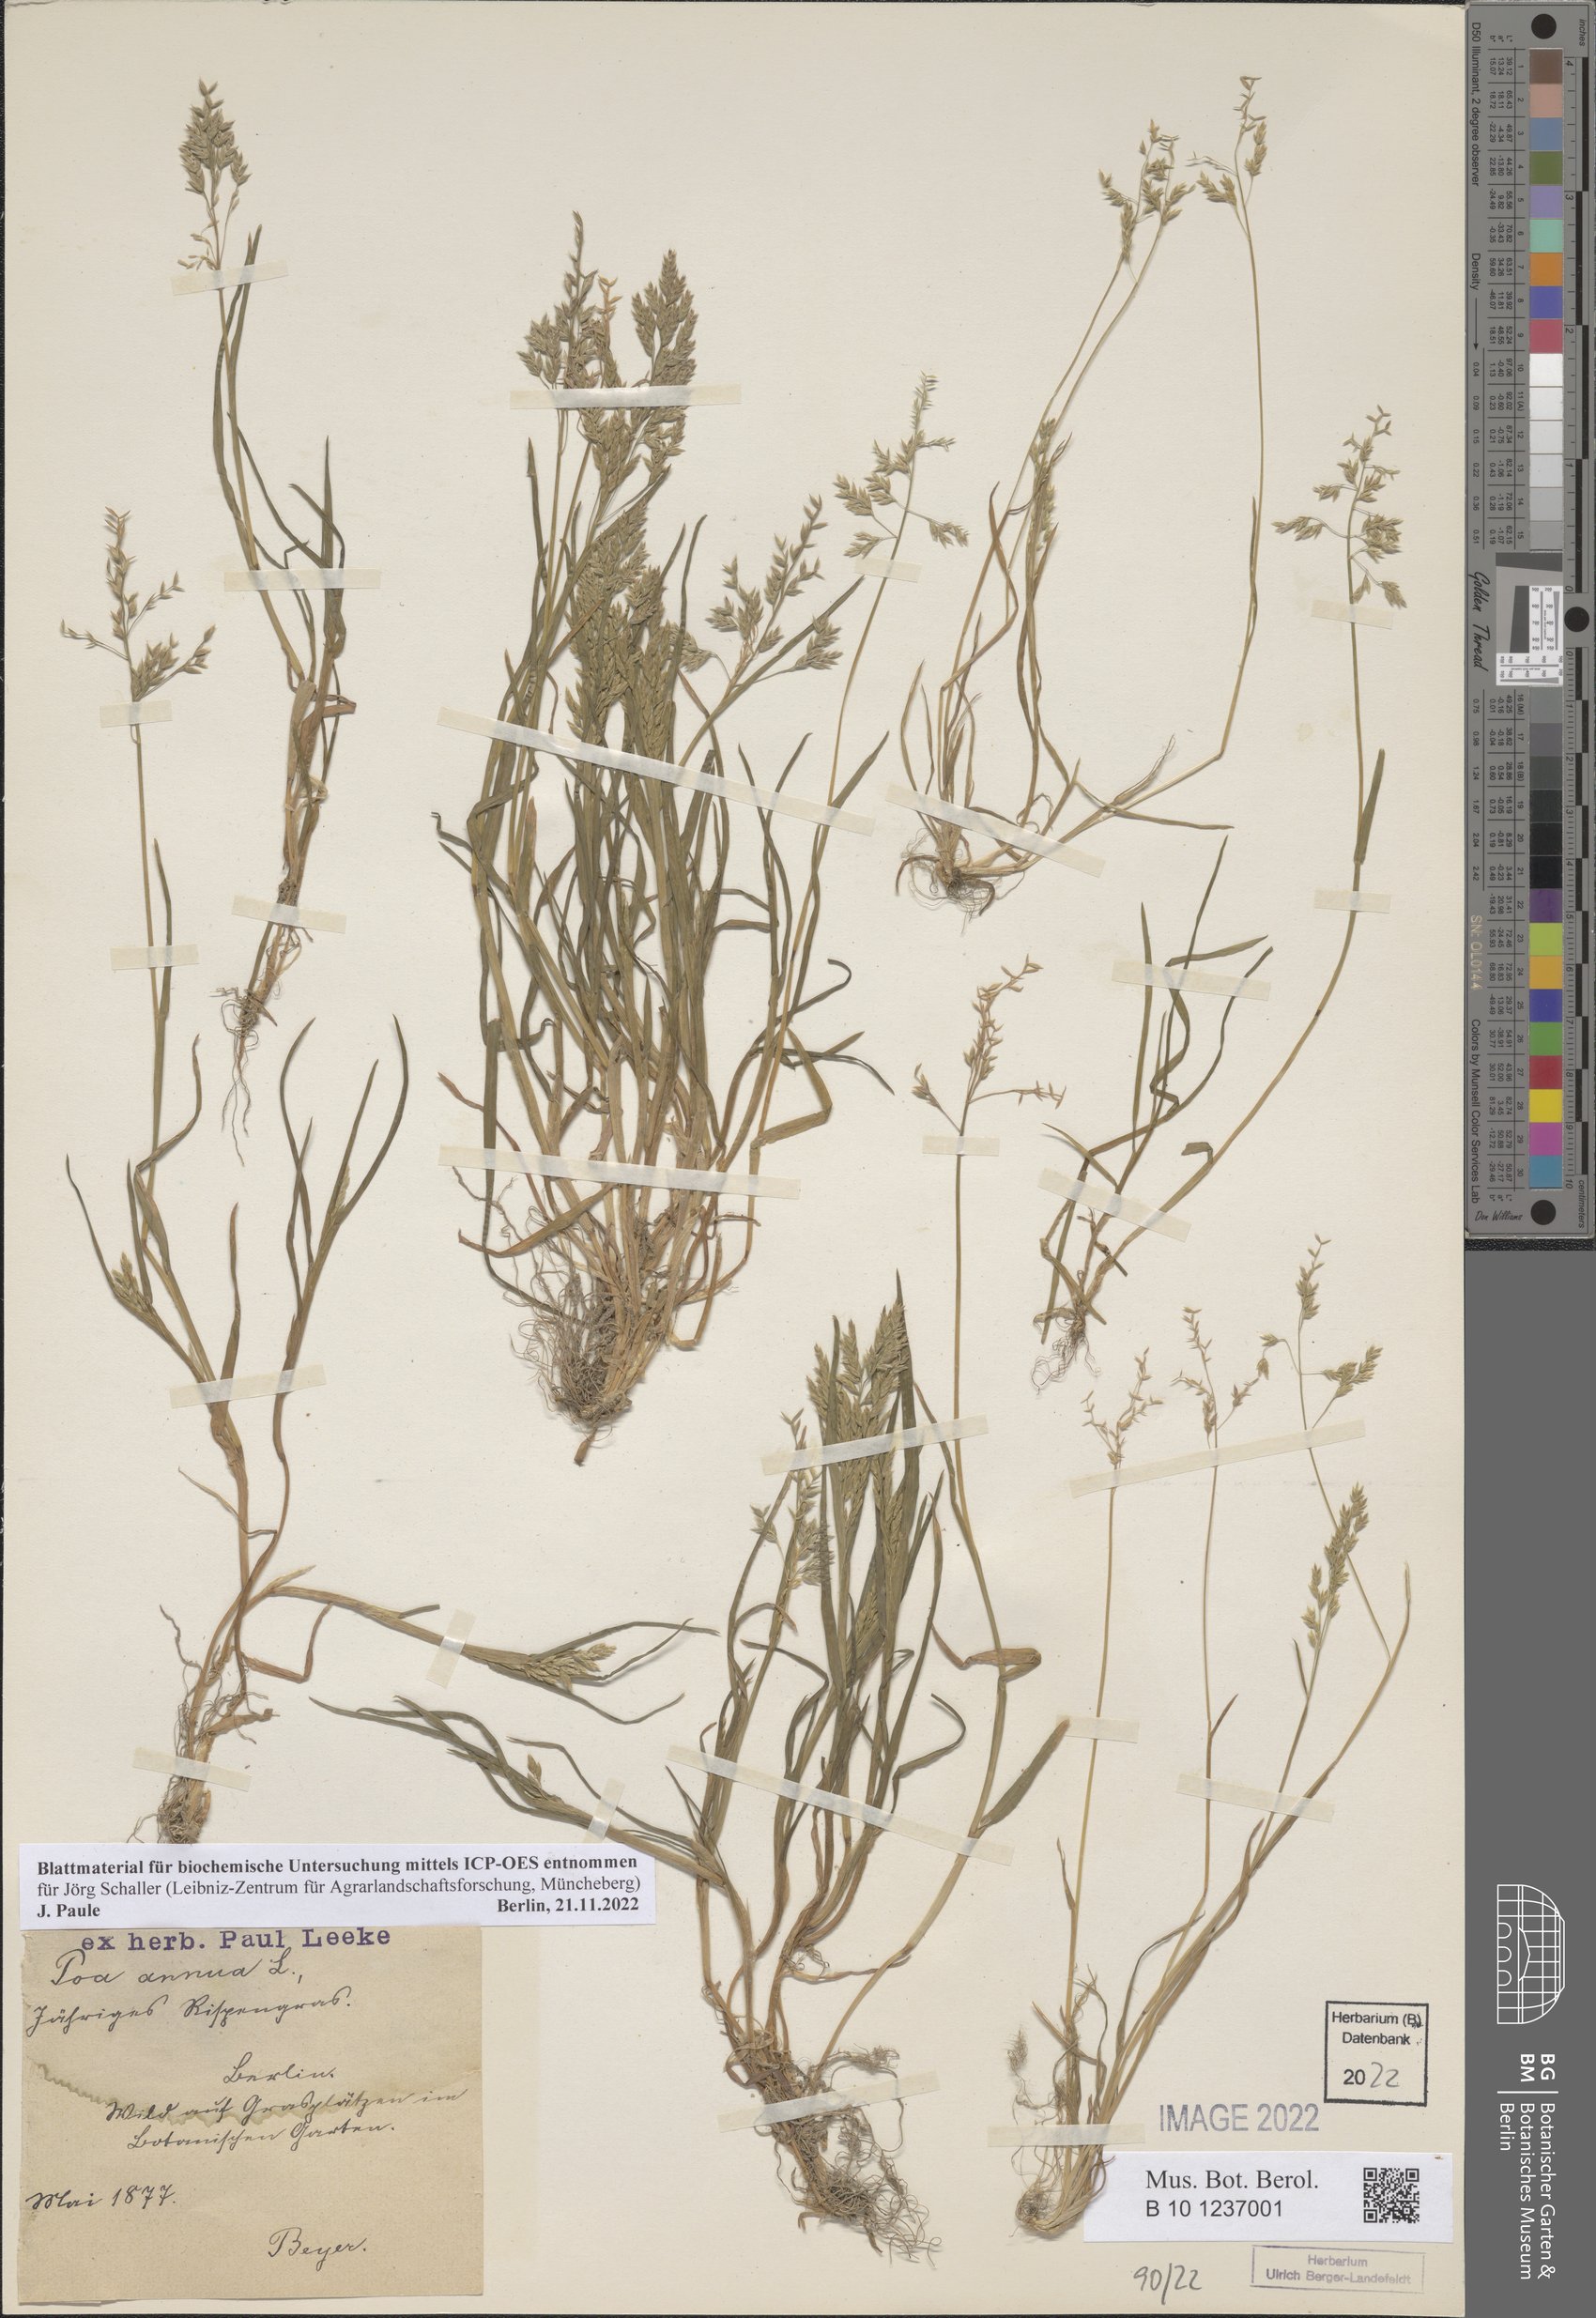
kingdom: Plantae
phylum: Tracheophyta
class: Liliopsida
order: Poales
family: Poaceae
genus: Poa
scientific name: Poa annua
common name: Annual bluegrass
